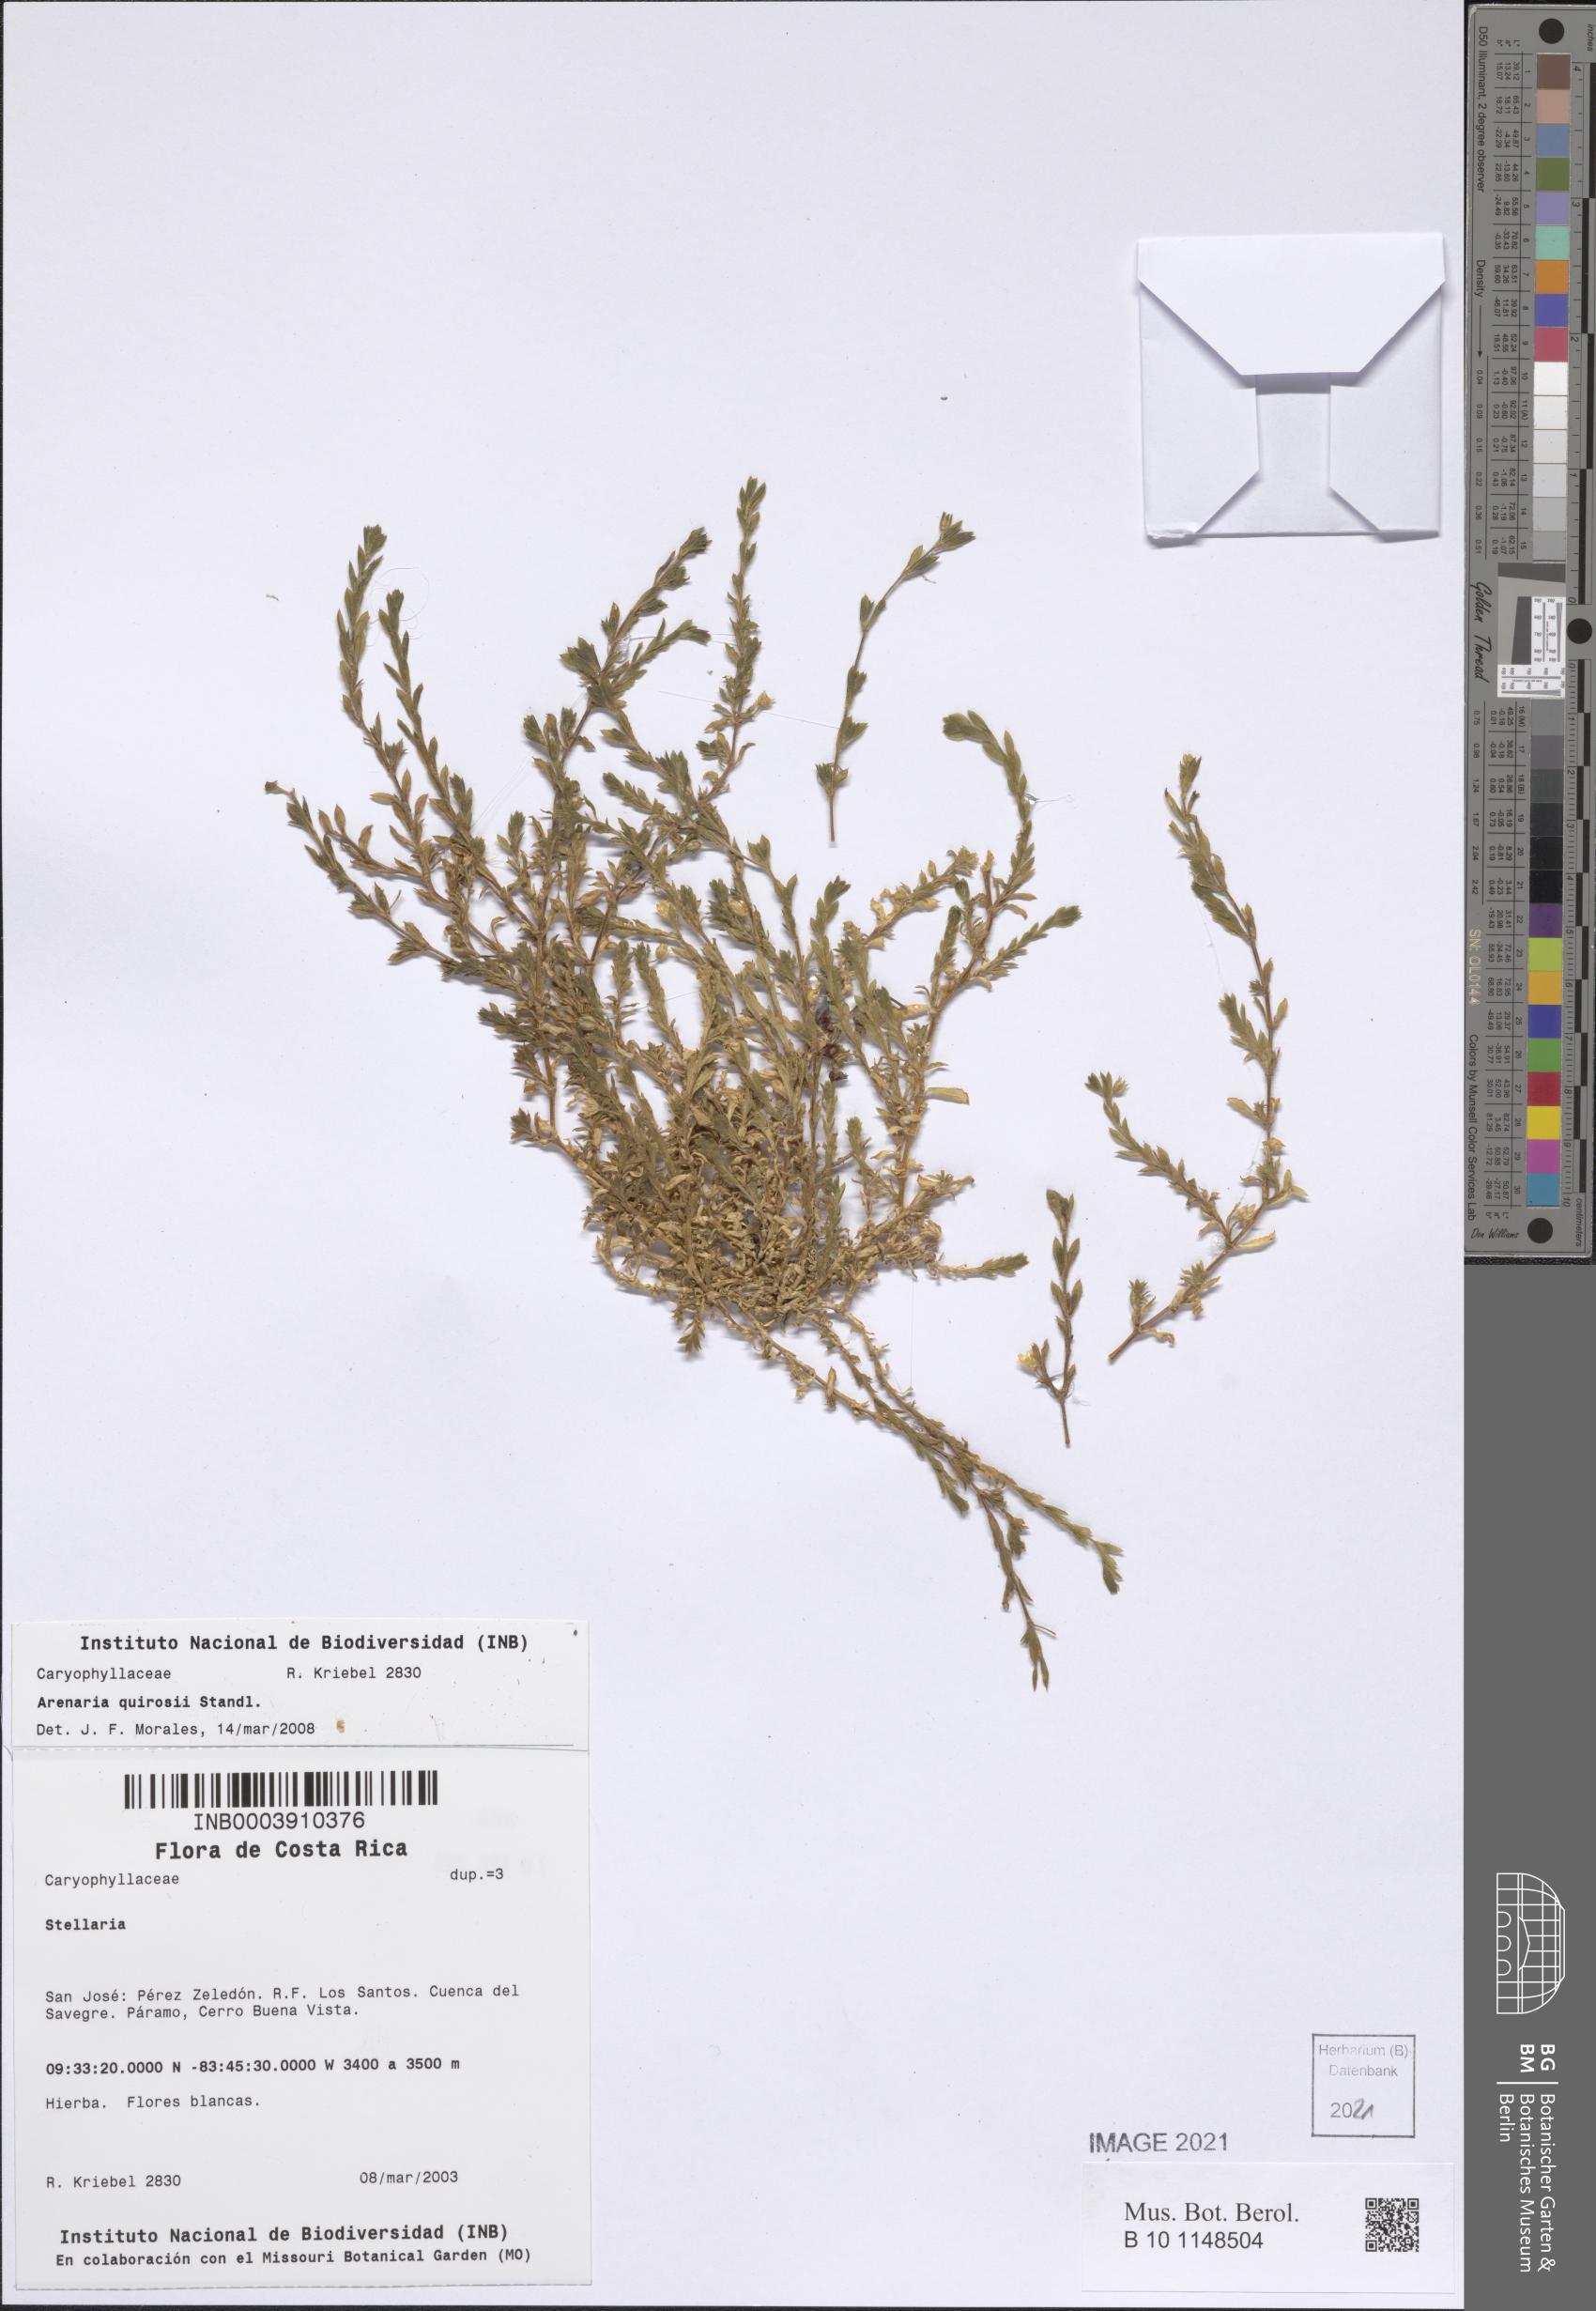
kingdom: Plantae
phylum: Tracheophyta
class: Magnoliopsida
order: Caryophyllales
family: Caryophyllaceae
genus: Arenaria
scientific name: Arenaria reptans
